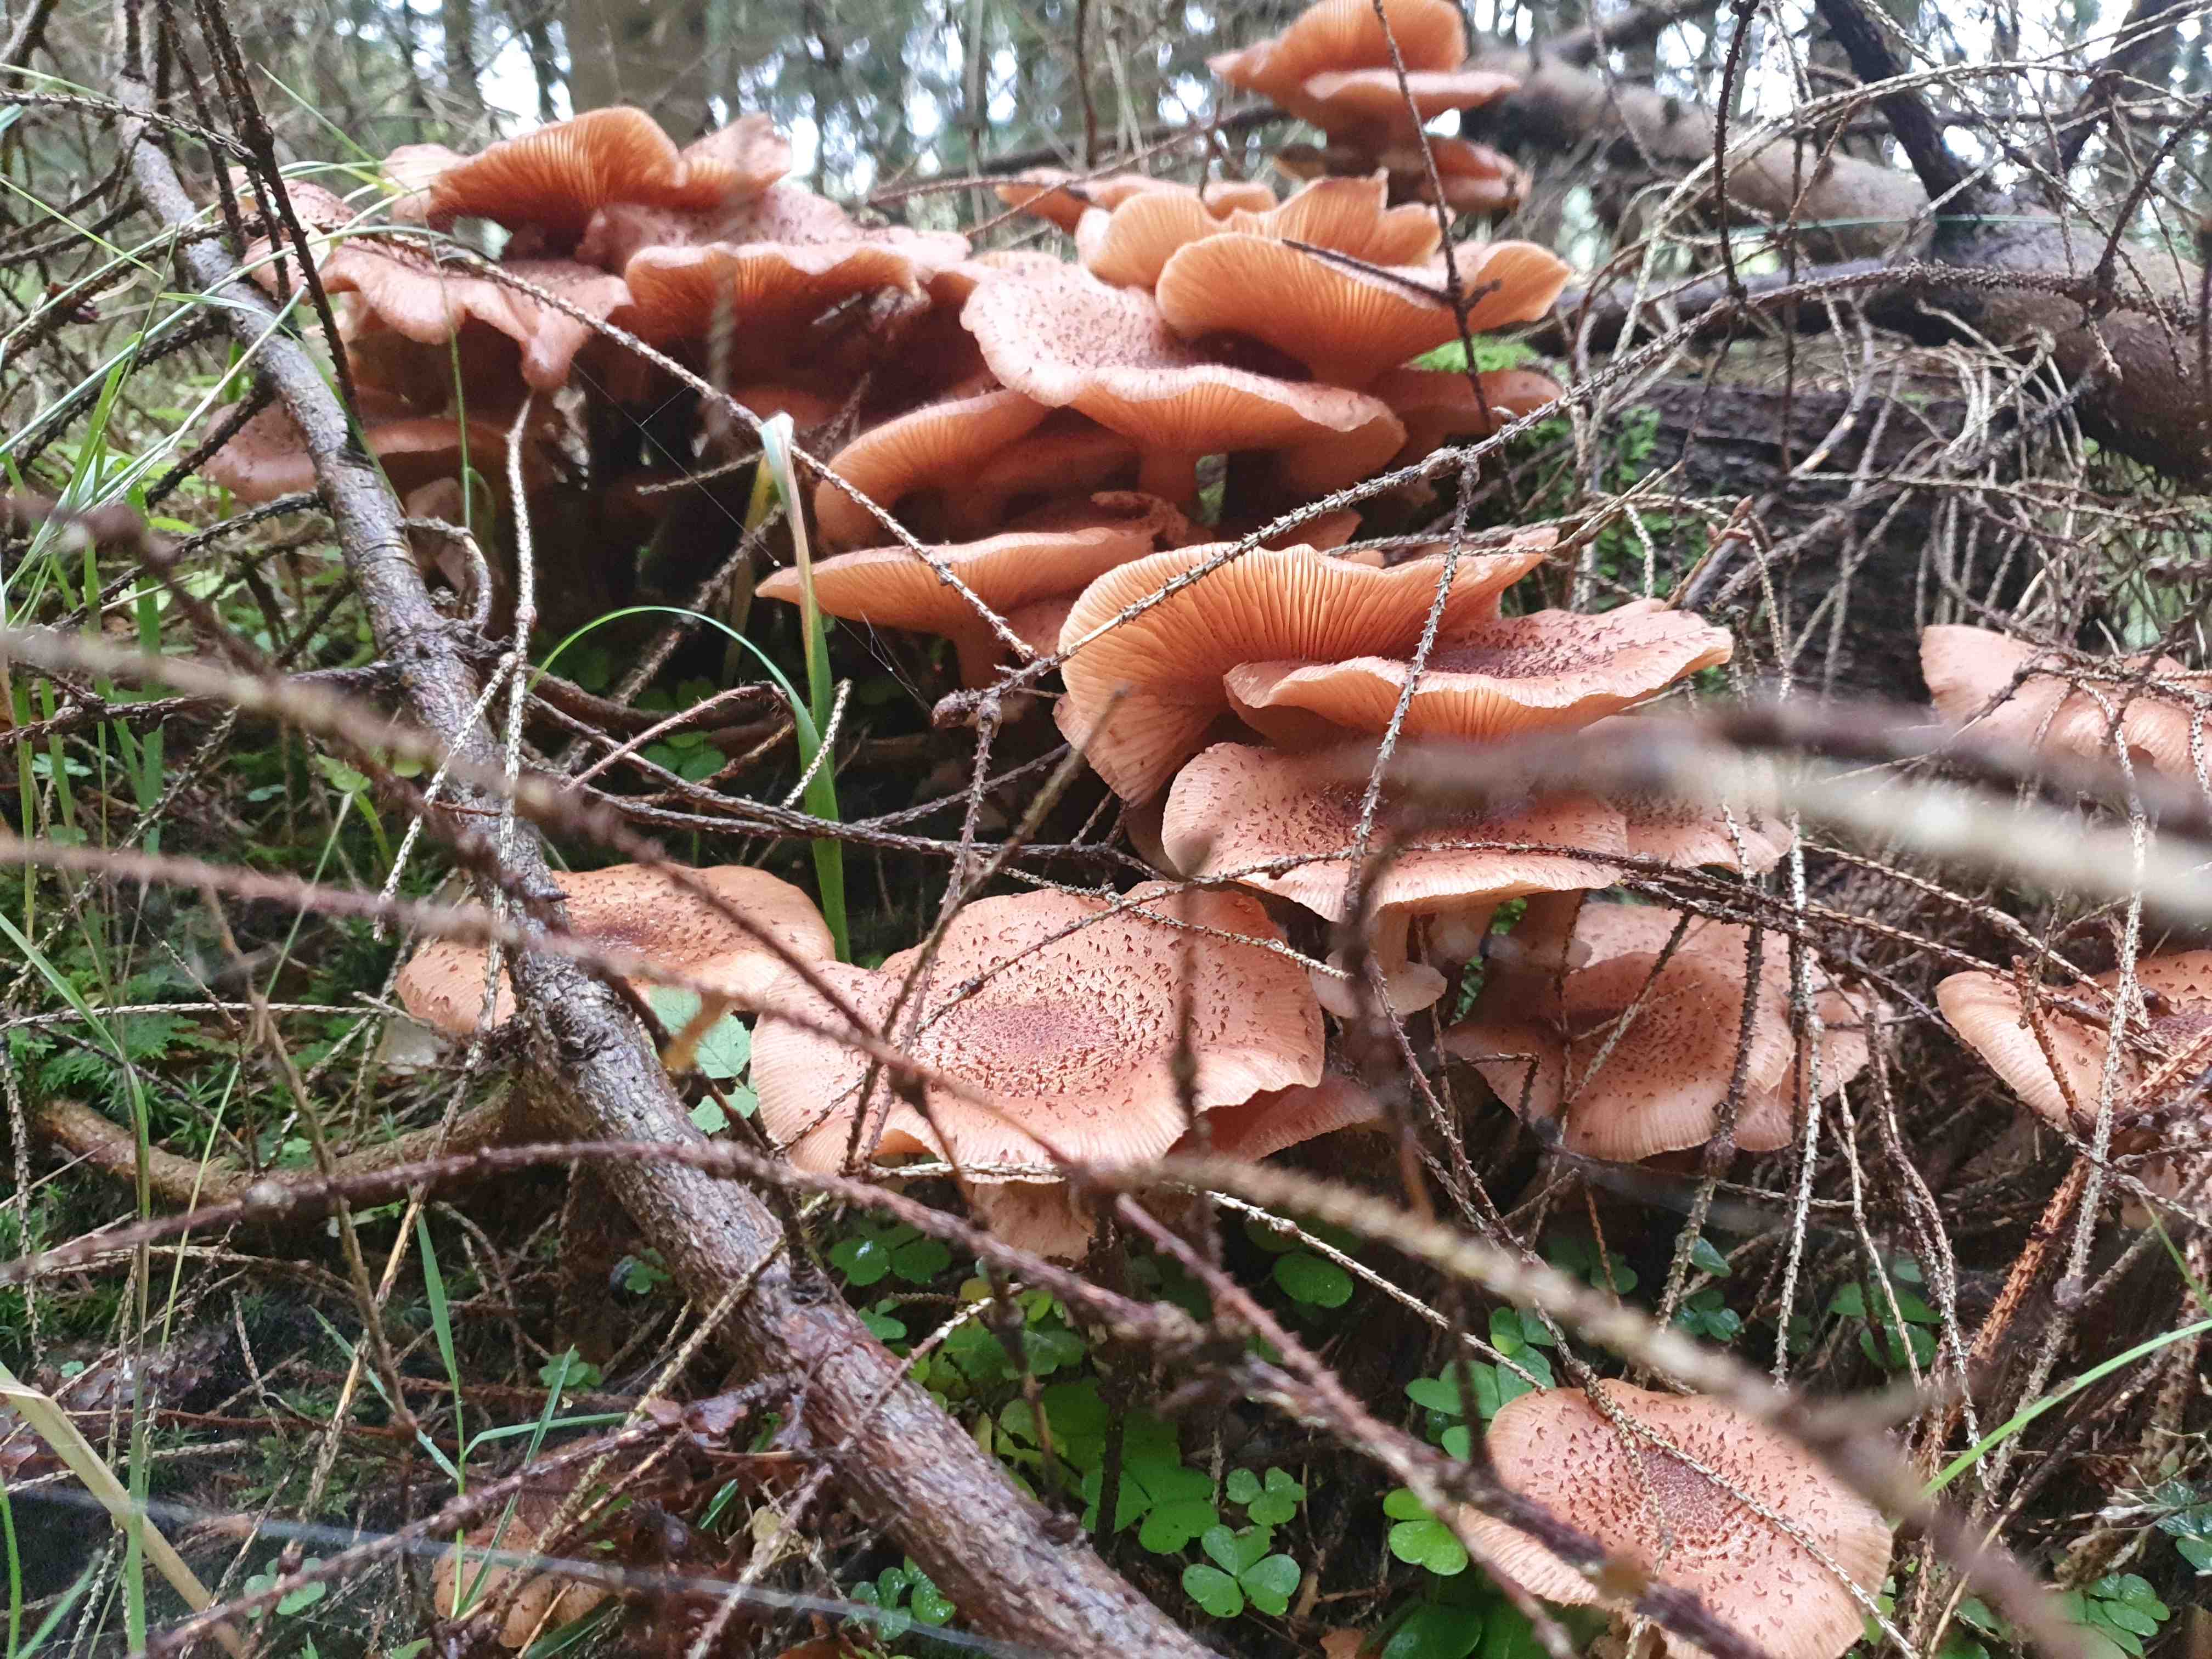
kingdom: Fungi
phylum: Basidiomycota
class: Agaricomycetes
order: Agaricales
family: Physalacriaceae
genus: Armillaria
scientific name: Armillaria
